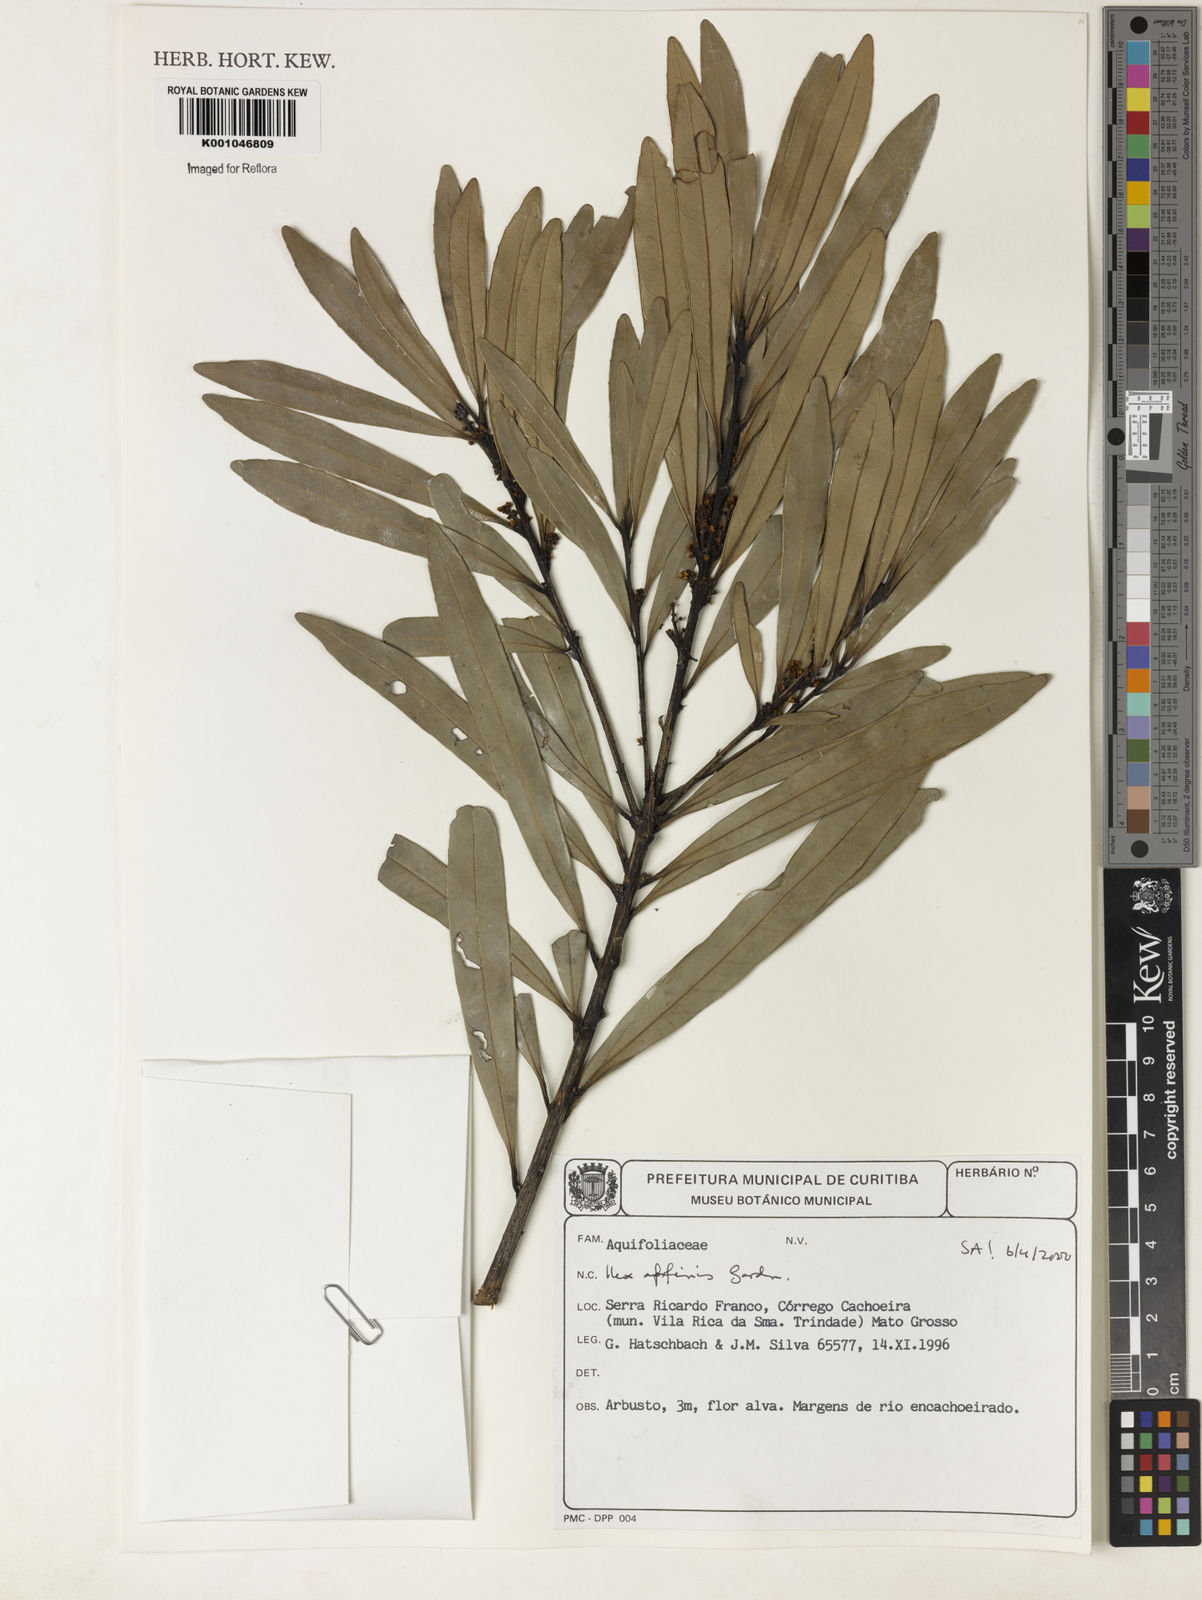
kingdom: Plantae
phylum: Tracheophyta
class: Magnoliopsida
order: Aquifoliales
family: Aquifoliaceae
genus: Ilex
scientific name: Ilex affinis
